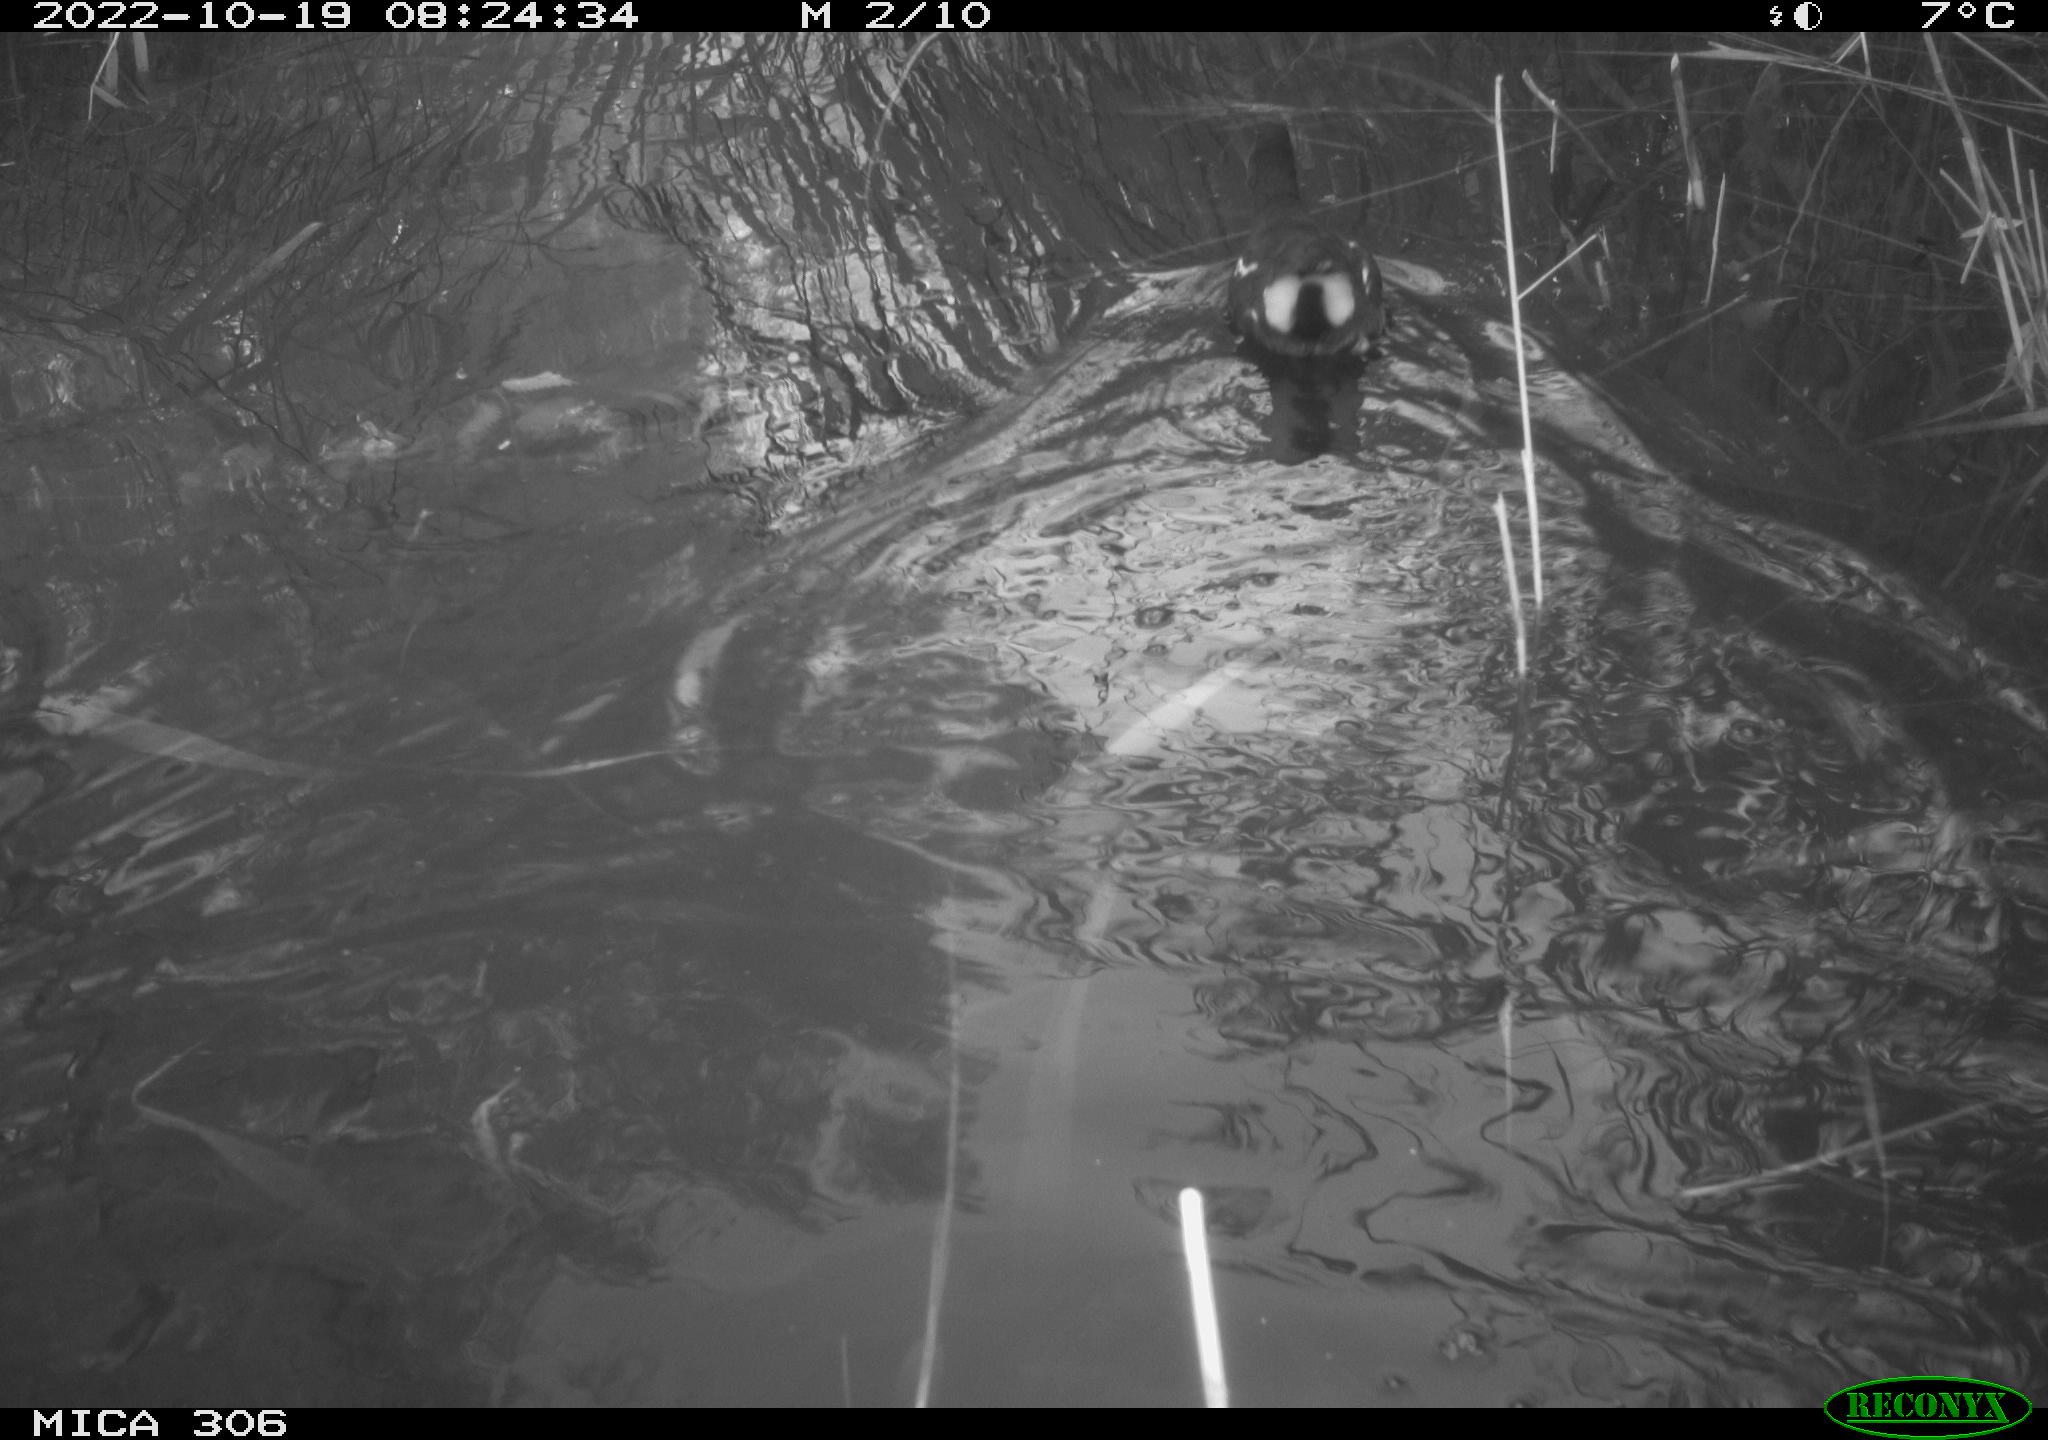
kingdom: Animalia
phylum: Chordata
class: Aves
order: Gruiformes
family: Rallidae
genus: Gallinula
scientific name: Gallinula chloropus
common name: Common moorhen
